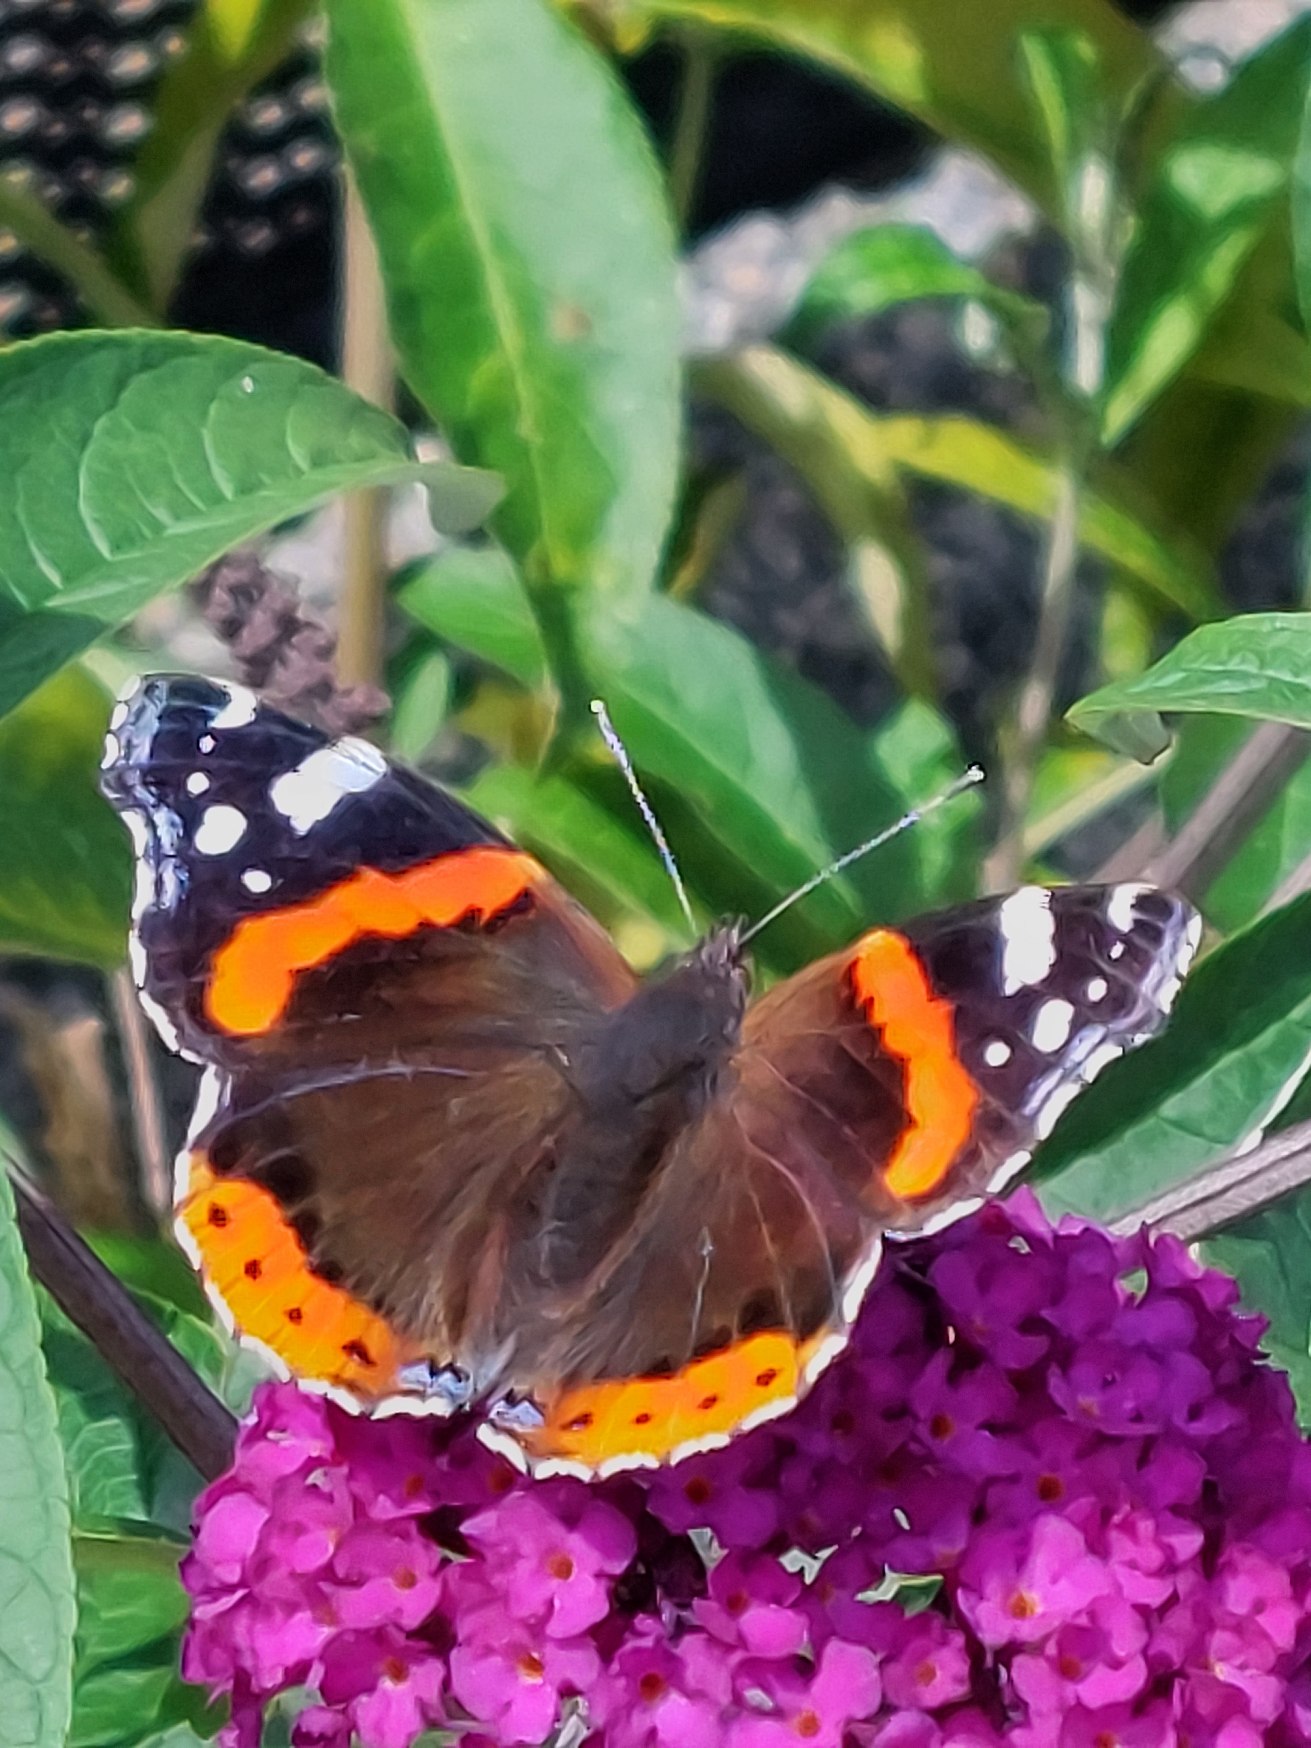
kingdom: Animalia
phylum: Arthropoda
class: Insecta
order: Lepidoptera
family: Nymphalidae
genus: Vanessa
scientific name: Vanessa atalanta
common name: Admiral
